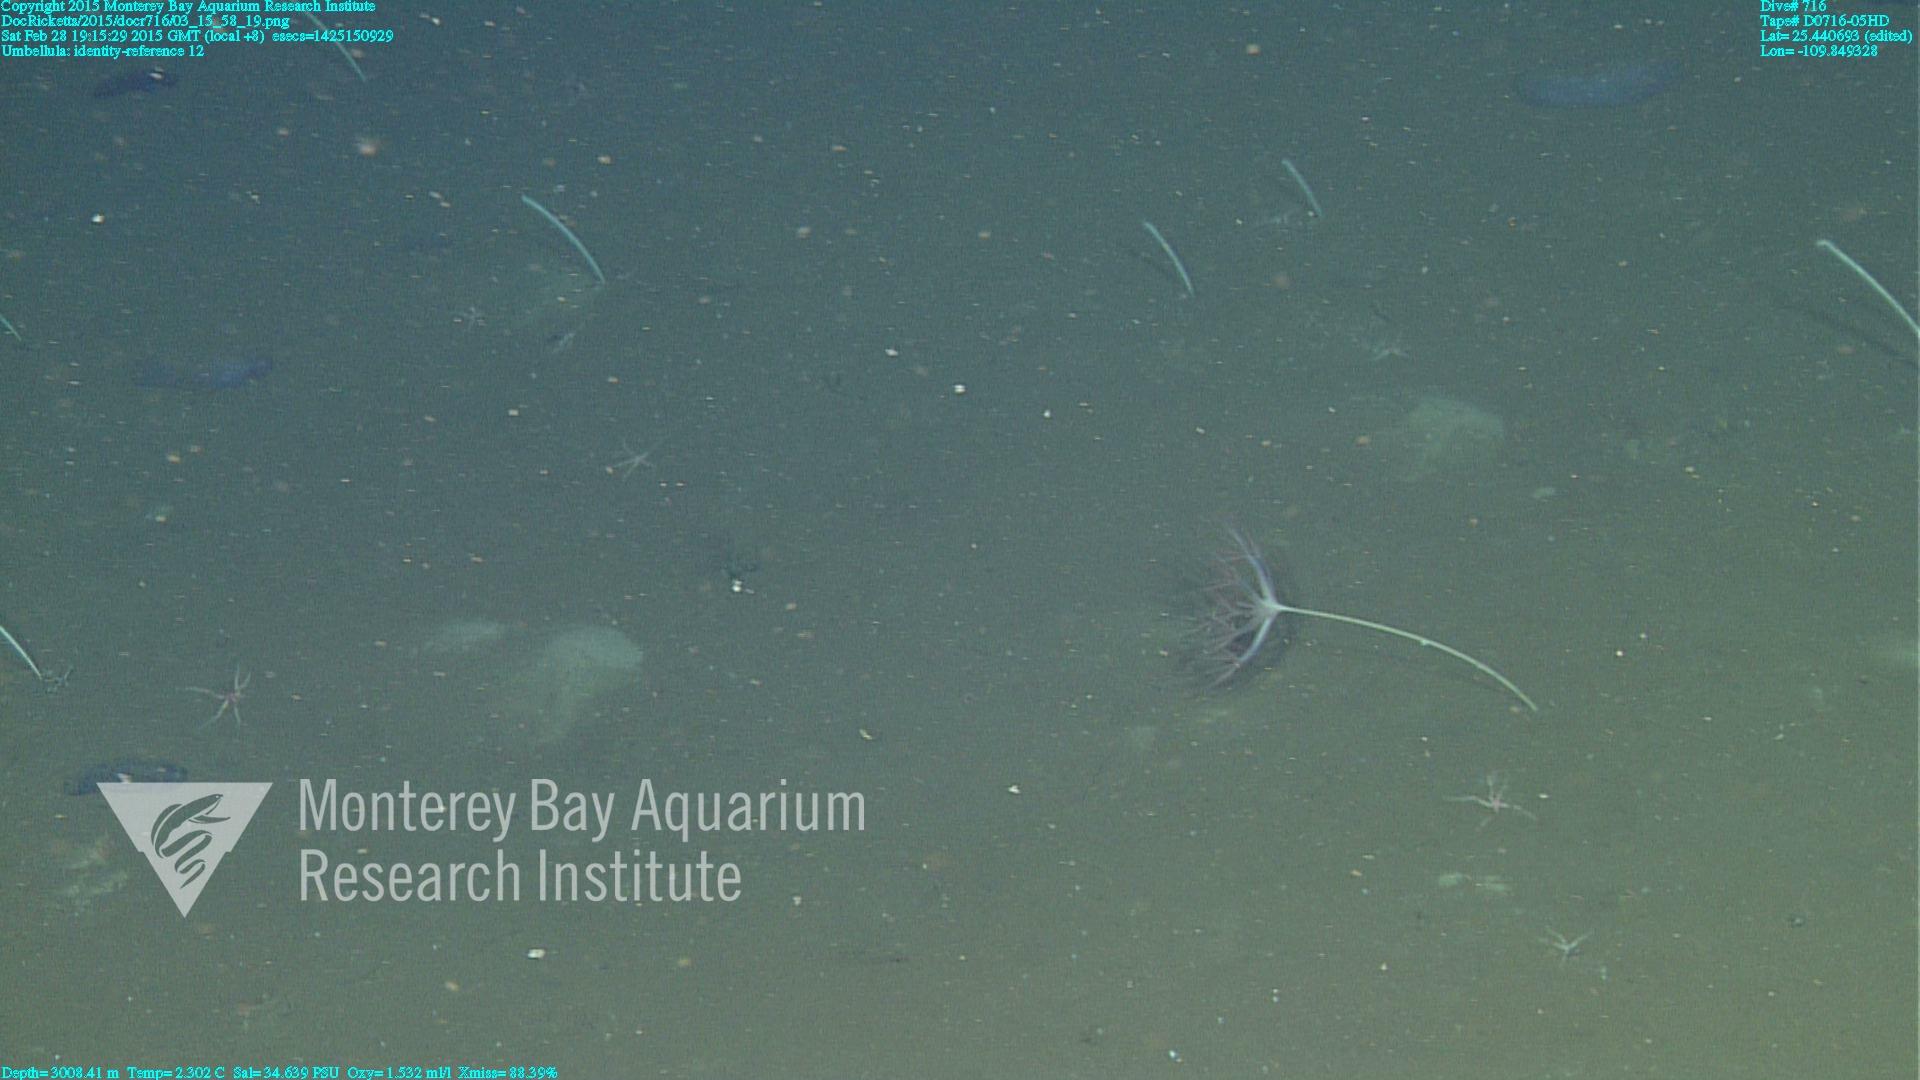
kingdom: Animalia
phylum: Cnidaria
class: Anthozoa
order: Scleralcyonacea
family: Umbellulidae
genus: Umbellula
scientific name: Umbellula
